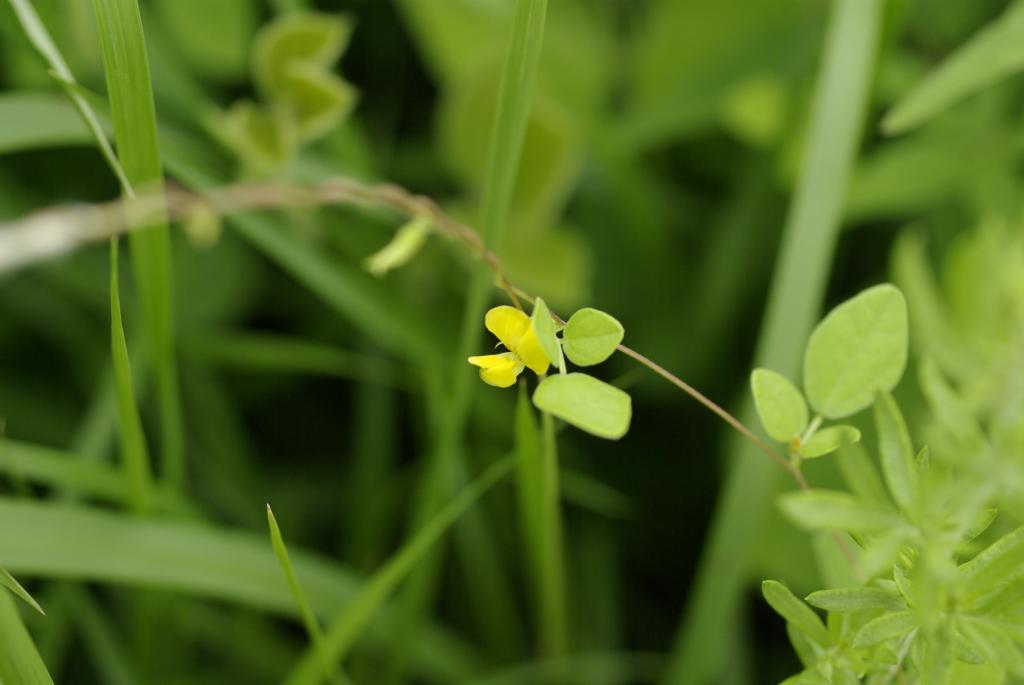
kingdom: Plantae
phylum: Tracheophyta
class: Magnoliopsida
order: Fabales
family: Fabaceae
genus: Dunbaria
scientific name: Dunbaria punctata
